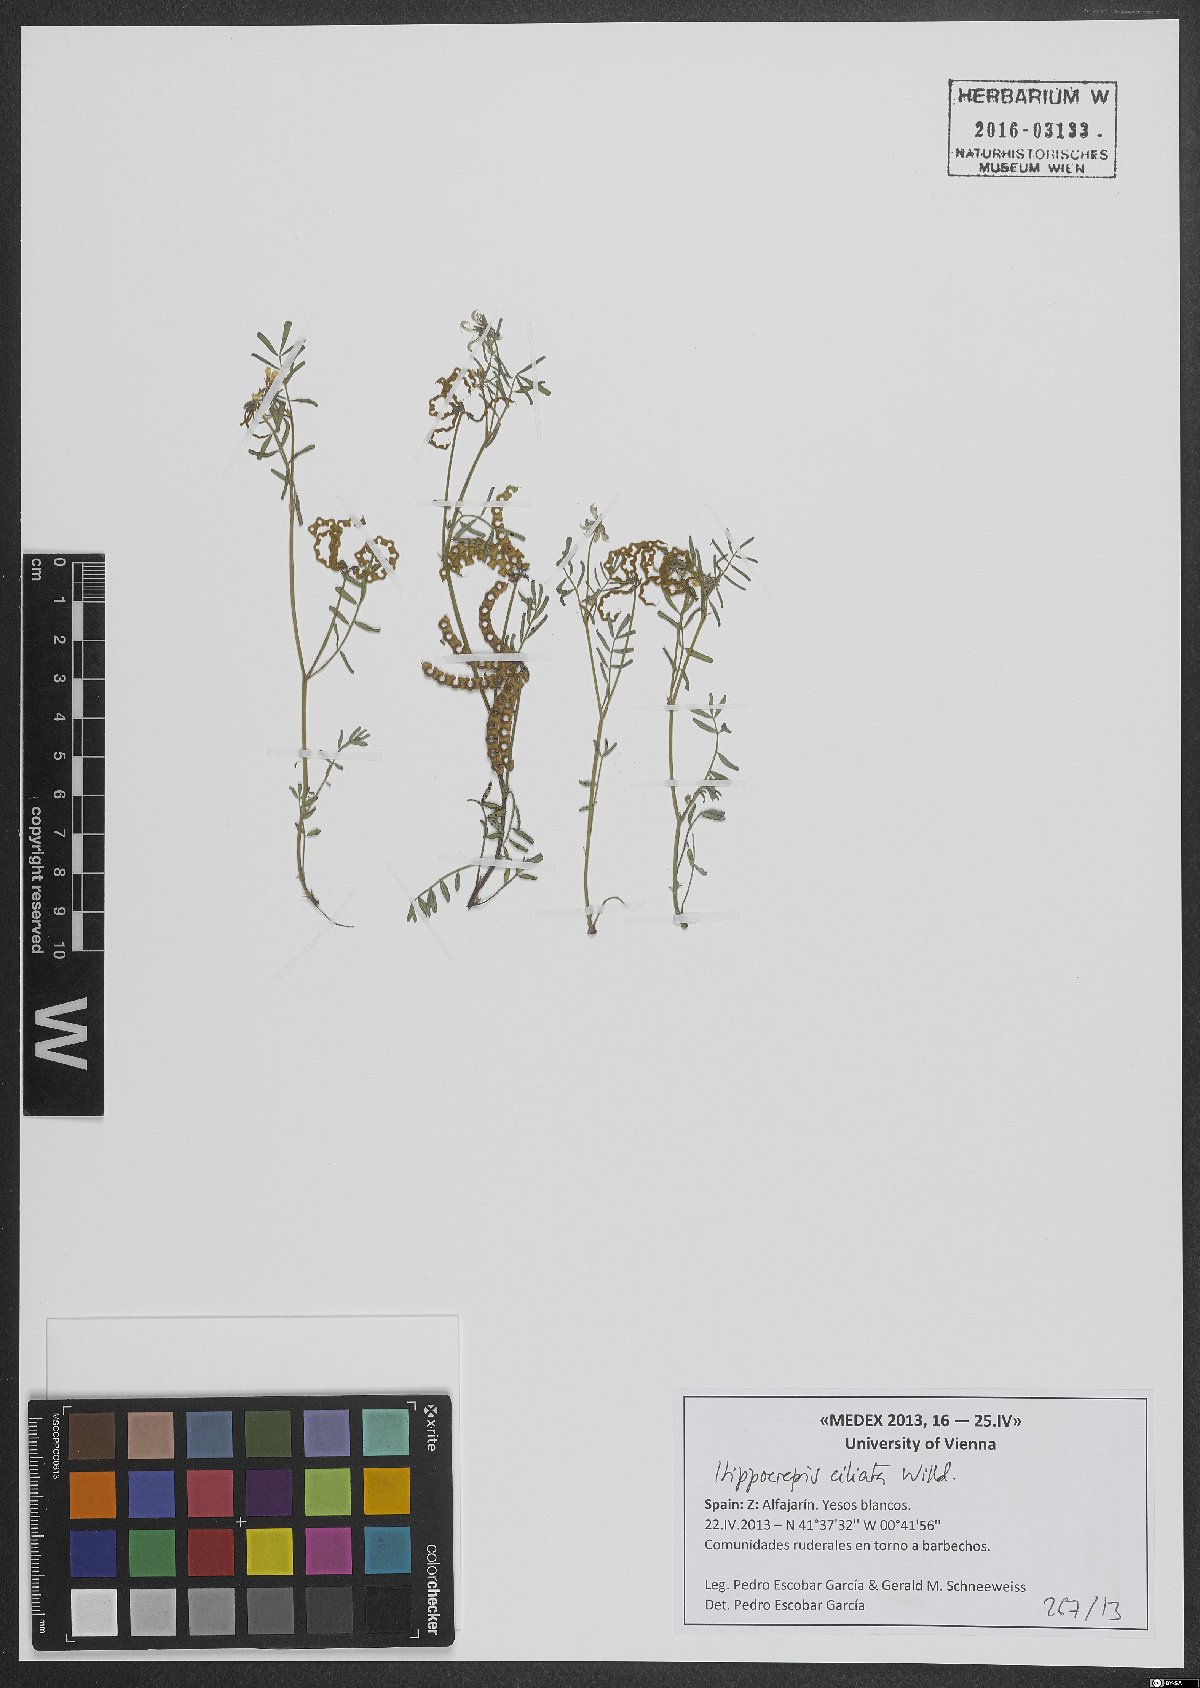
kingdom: Plantae
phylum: Tracheophyta
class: Magnoliopsida
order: Fabales
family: Fabaceae
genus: Hippocrepis
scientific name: Hippocrepis ciliata
